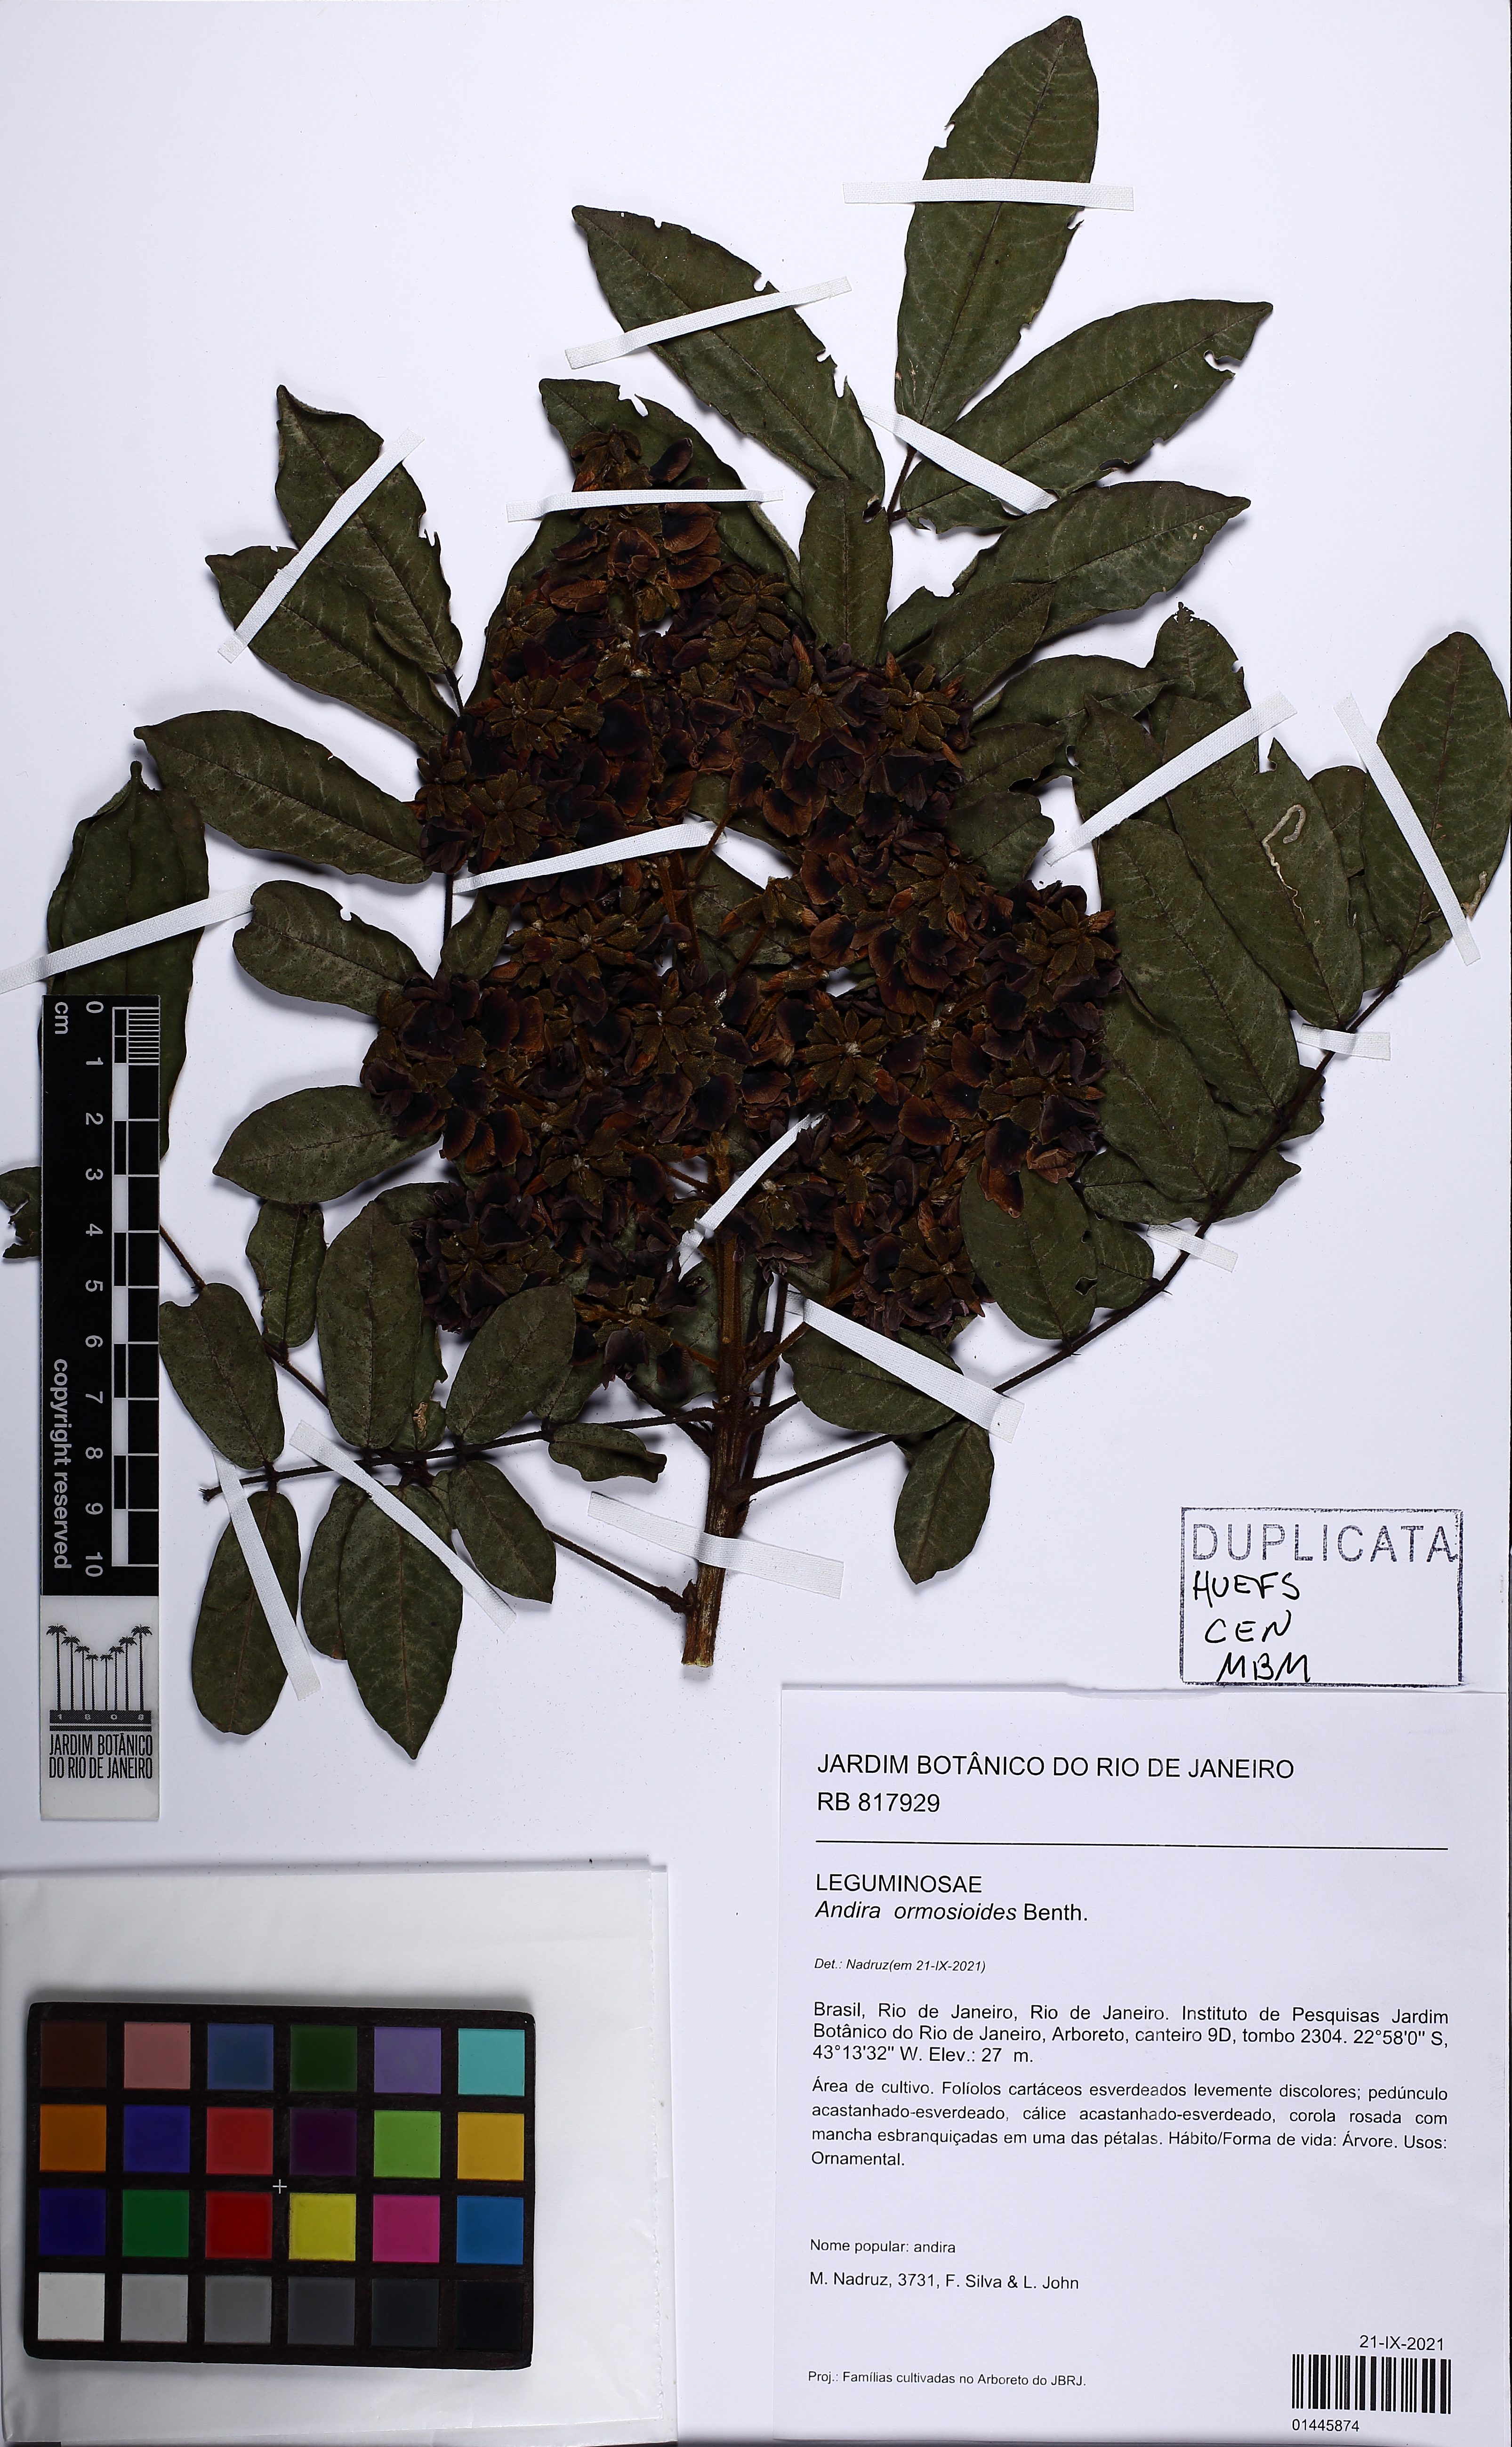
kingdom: Plantae
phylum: Tracheophyta
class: Magnoliopsida
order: Fabales
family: Fabaceae
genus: Andira
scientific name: Andira ormosioides
